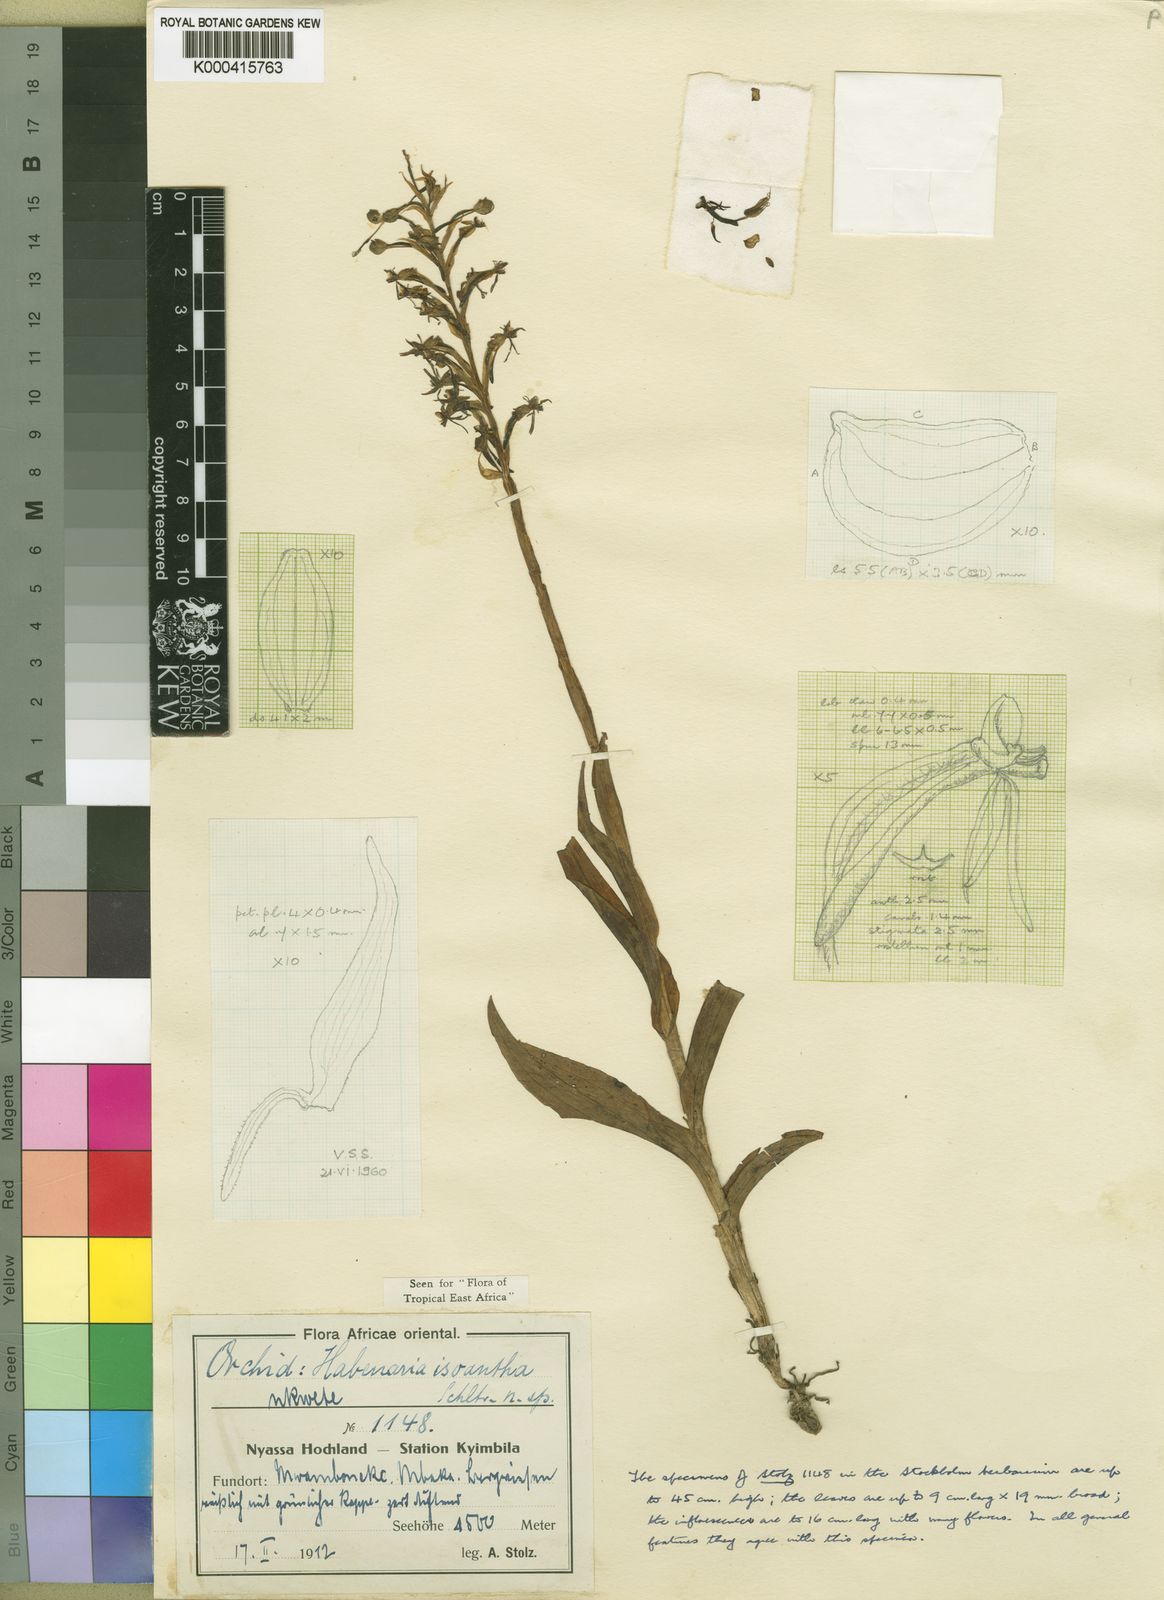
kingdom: Plantae
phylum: Tracheophyta
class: Liliopsida
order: Asparagales
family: Orchidaceae
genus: Habenaria
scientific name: Habenaria isoantha
